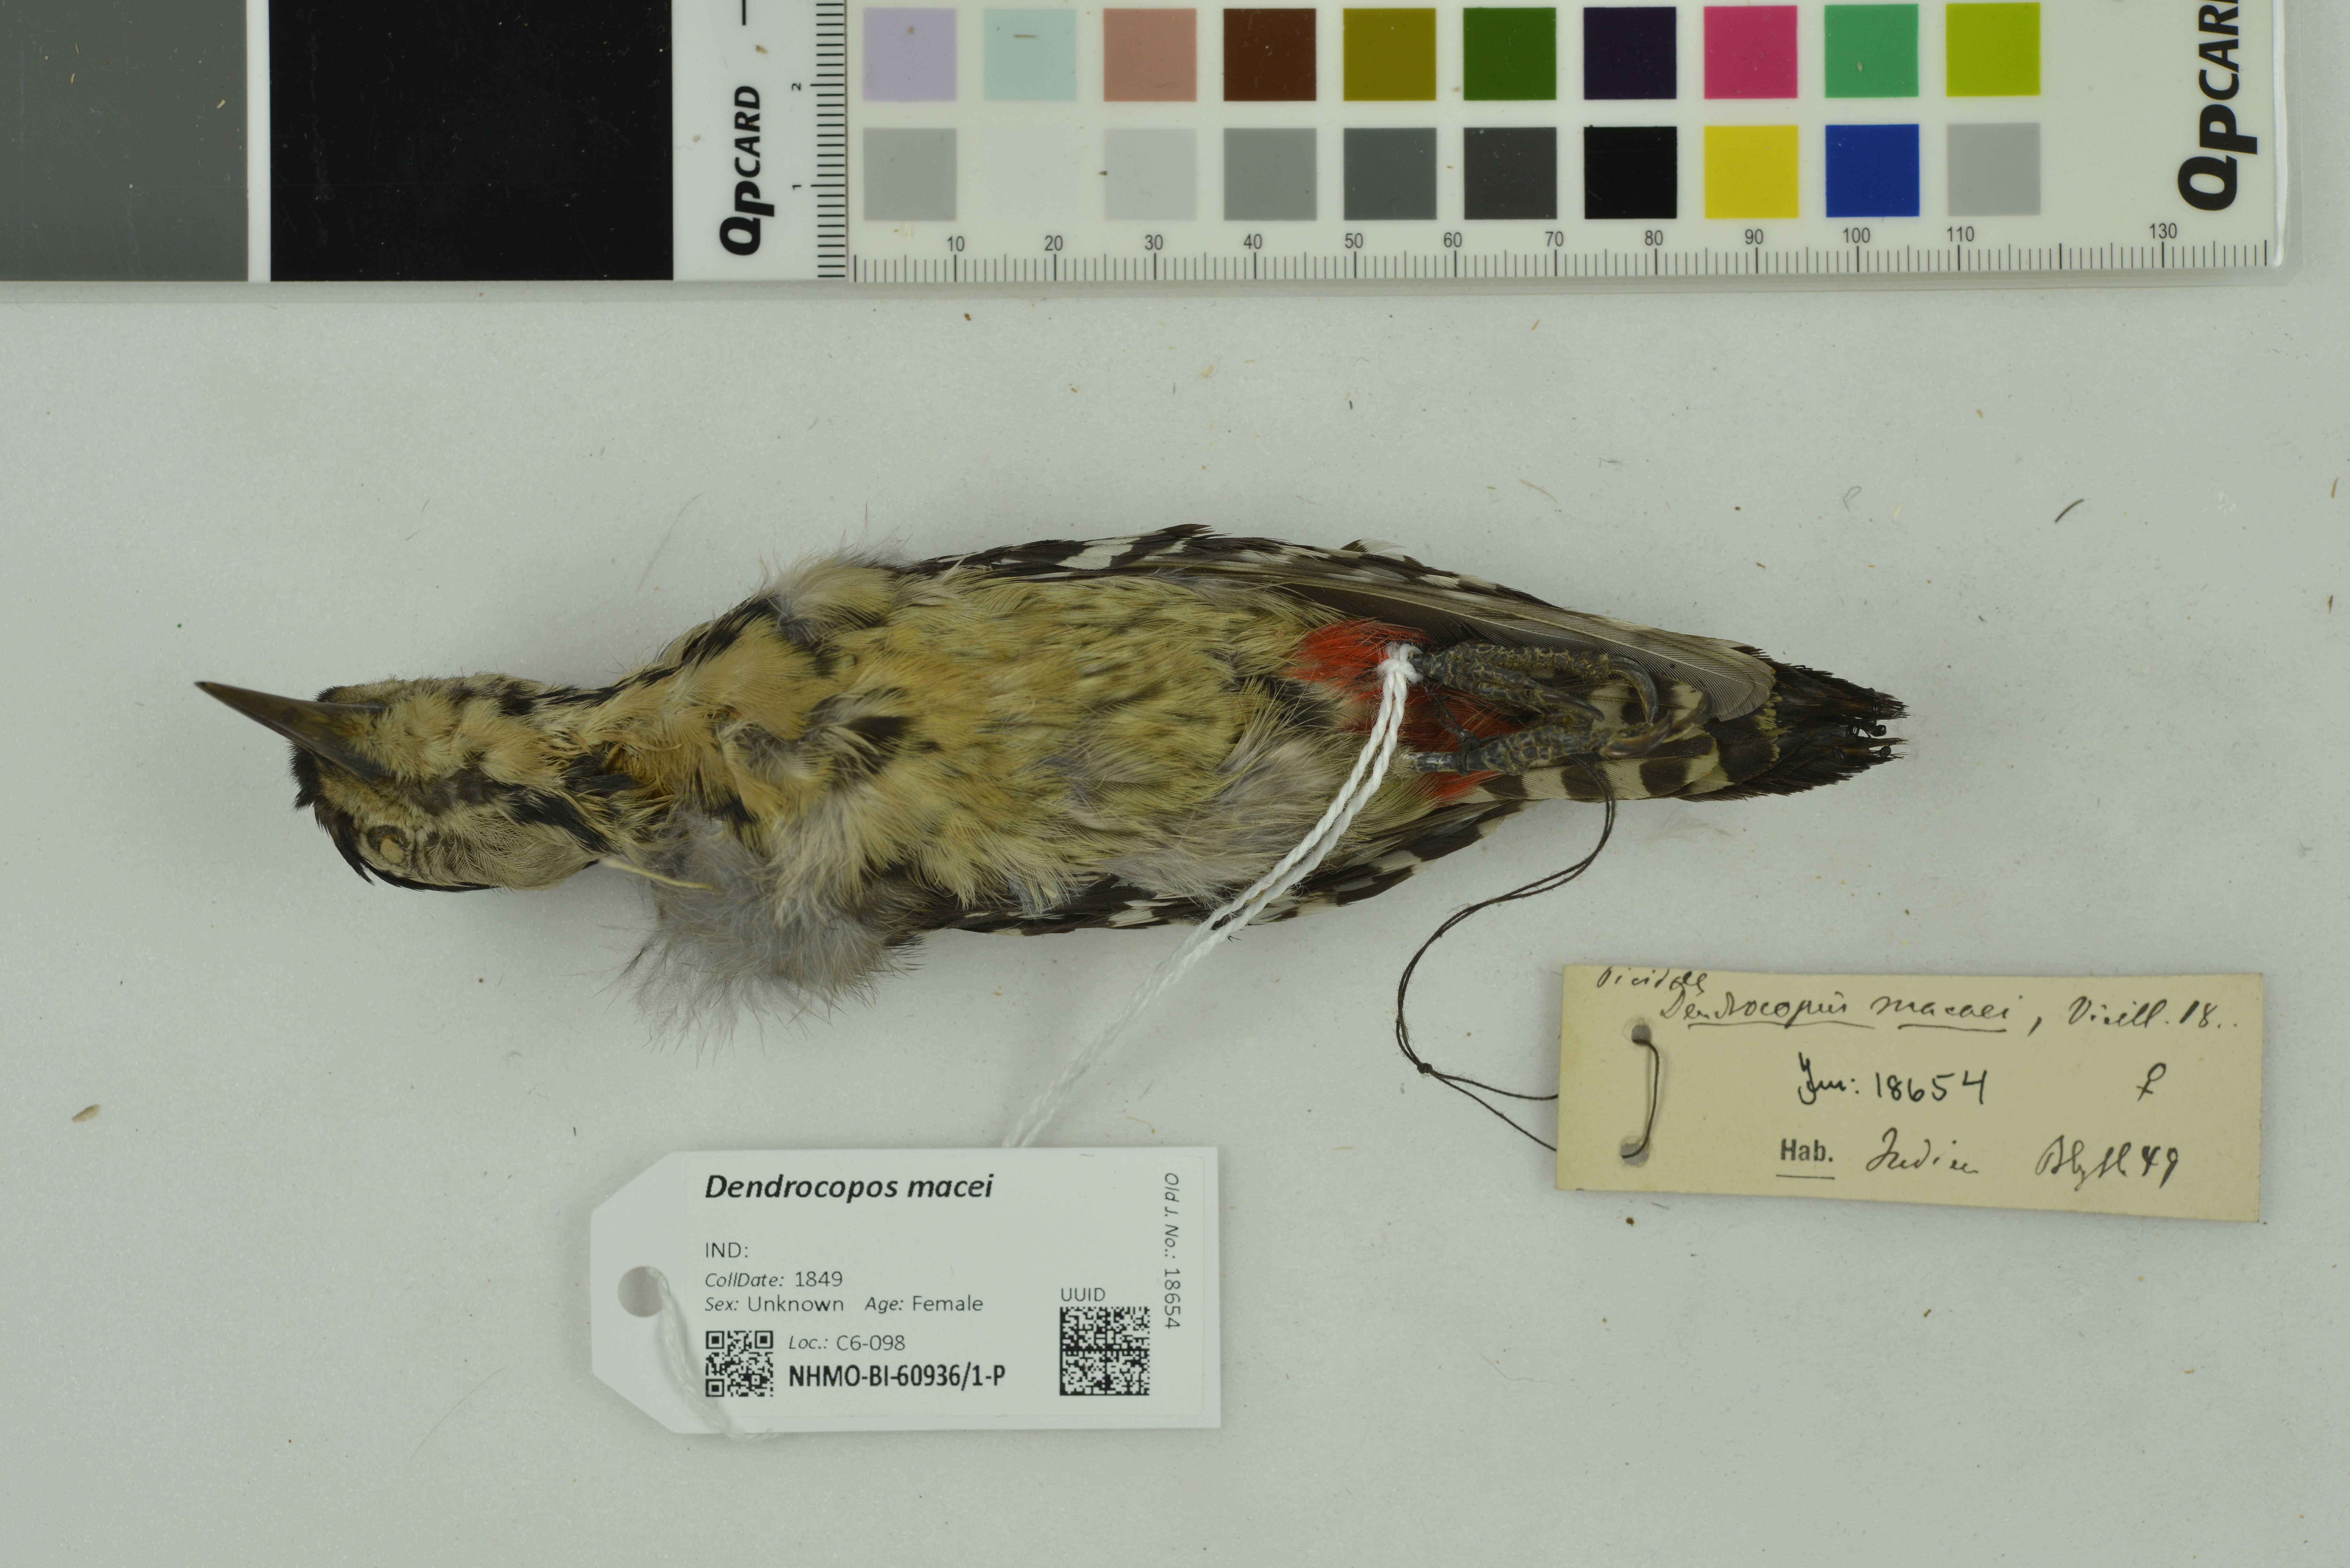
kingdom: Animalia
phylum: Chordata
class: Aves
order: Piciformes
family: Picidae
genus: Dendrocopos
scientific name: Dendrocopos macei
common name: Fulvous-breasted woodpecker
